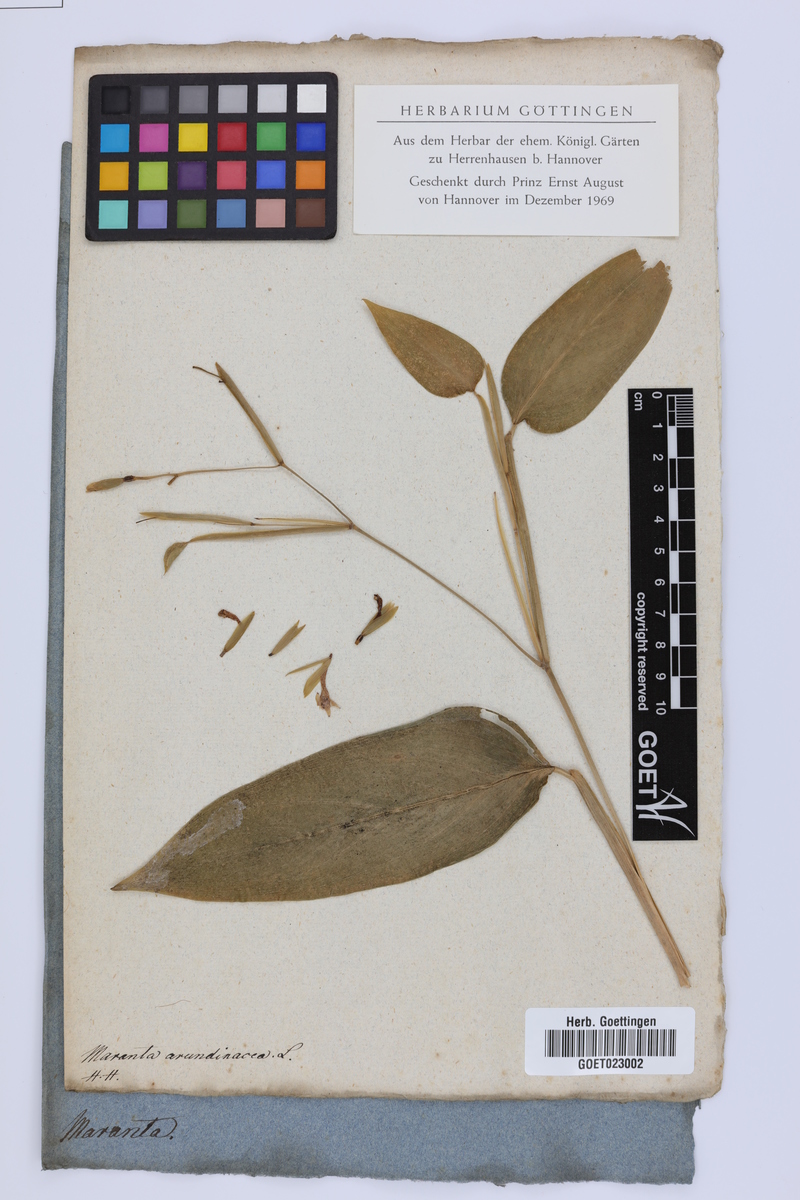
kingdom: Plantae
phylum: Tracheophyta
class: Liliopsida
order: Zingiberales
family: Marantaceae
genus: Maranta
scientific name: Maranta arundinacea
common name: Arrowroot
